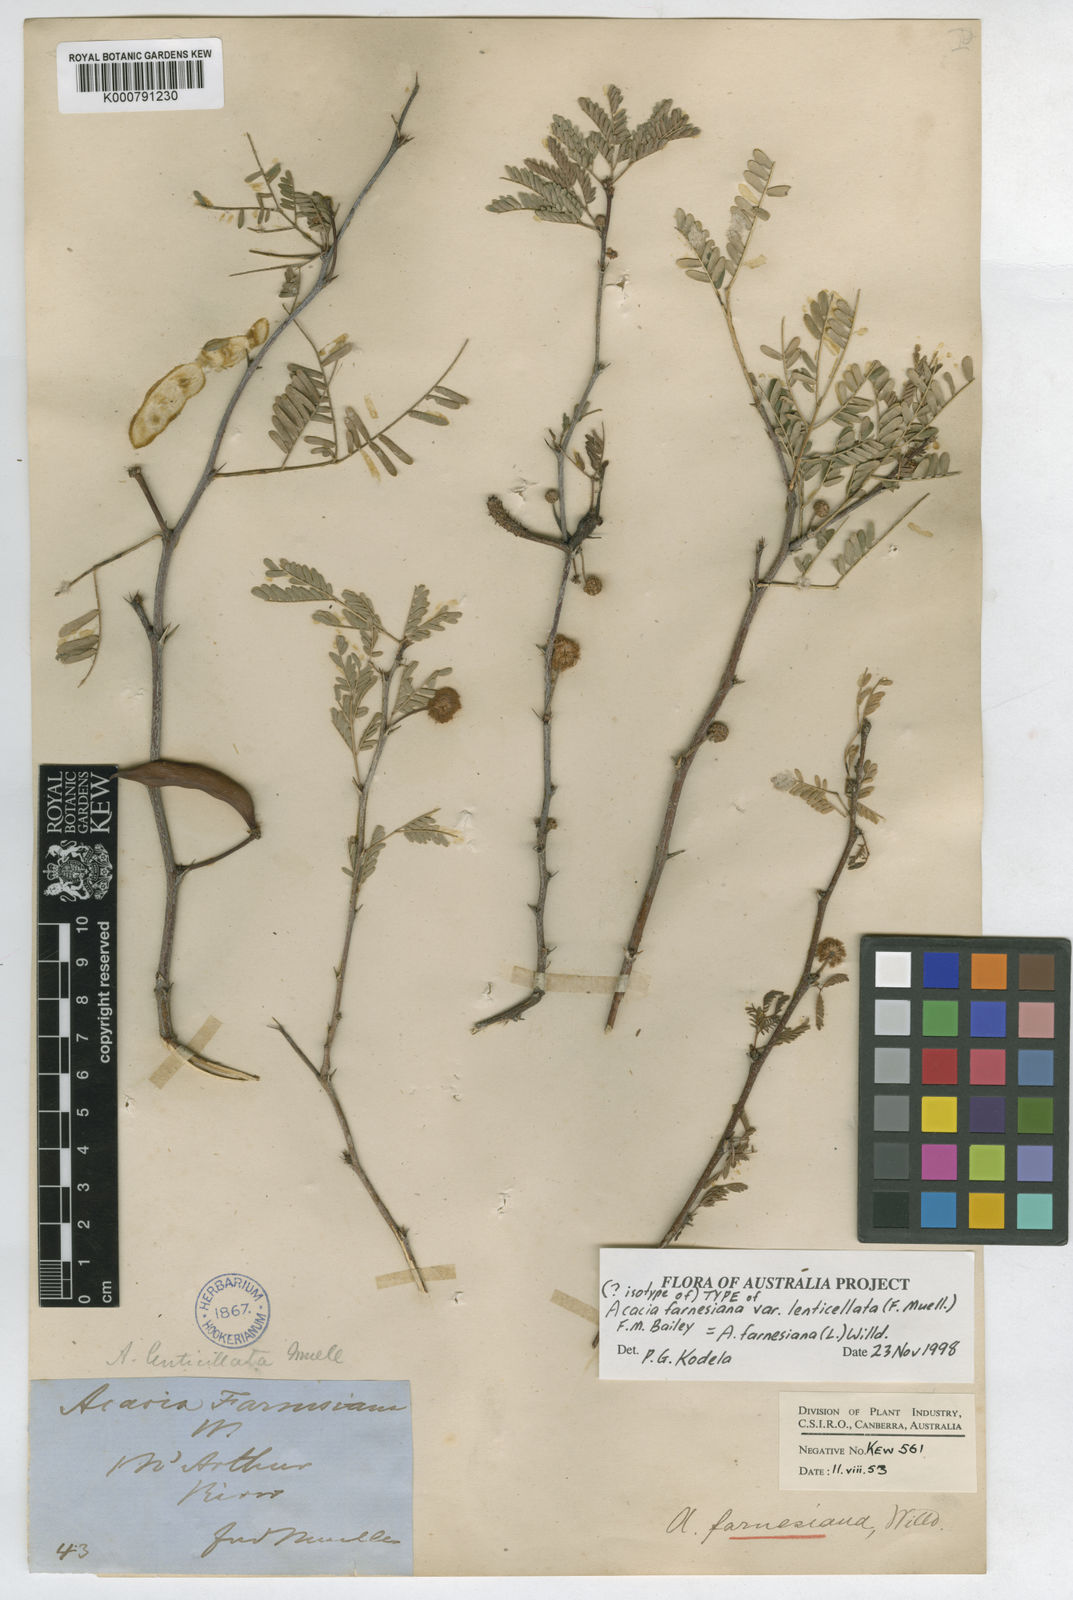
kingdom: Plantae
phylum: Tracheophyta
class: Magnoliopsida
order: Fabales
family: Fabaceae
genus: Vachellia
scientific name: Vachellia farnesiana
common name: Sweet acacia
